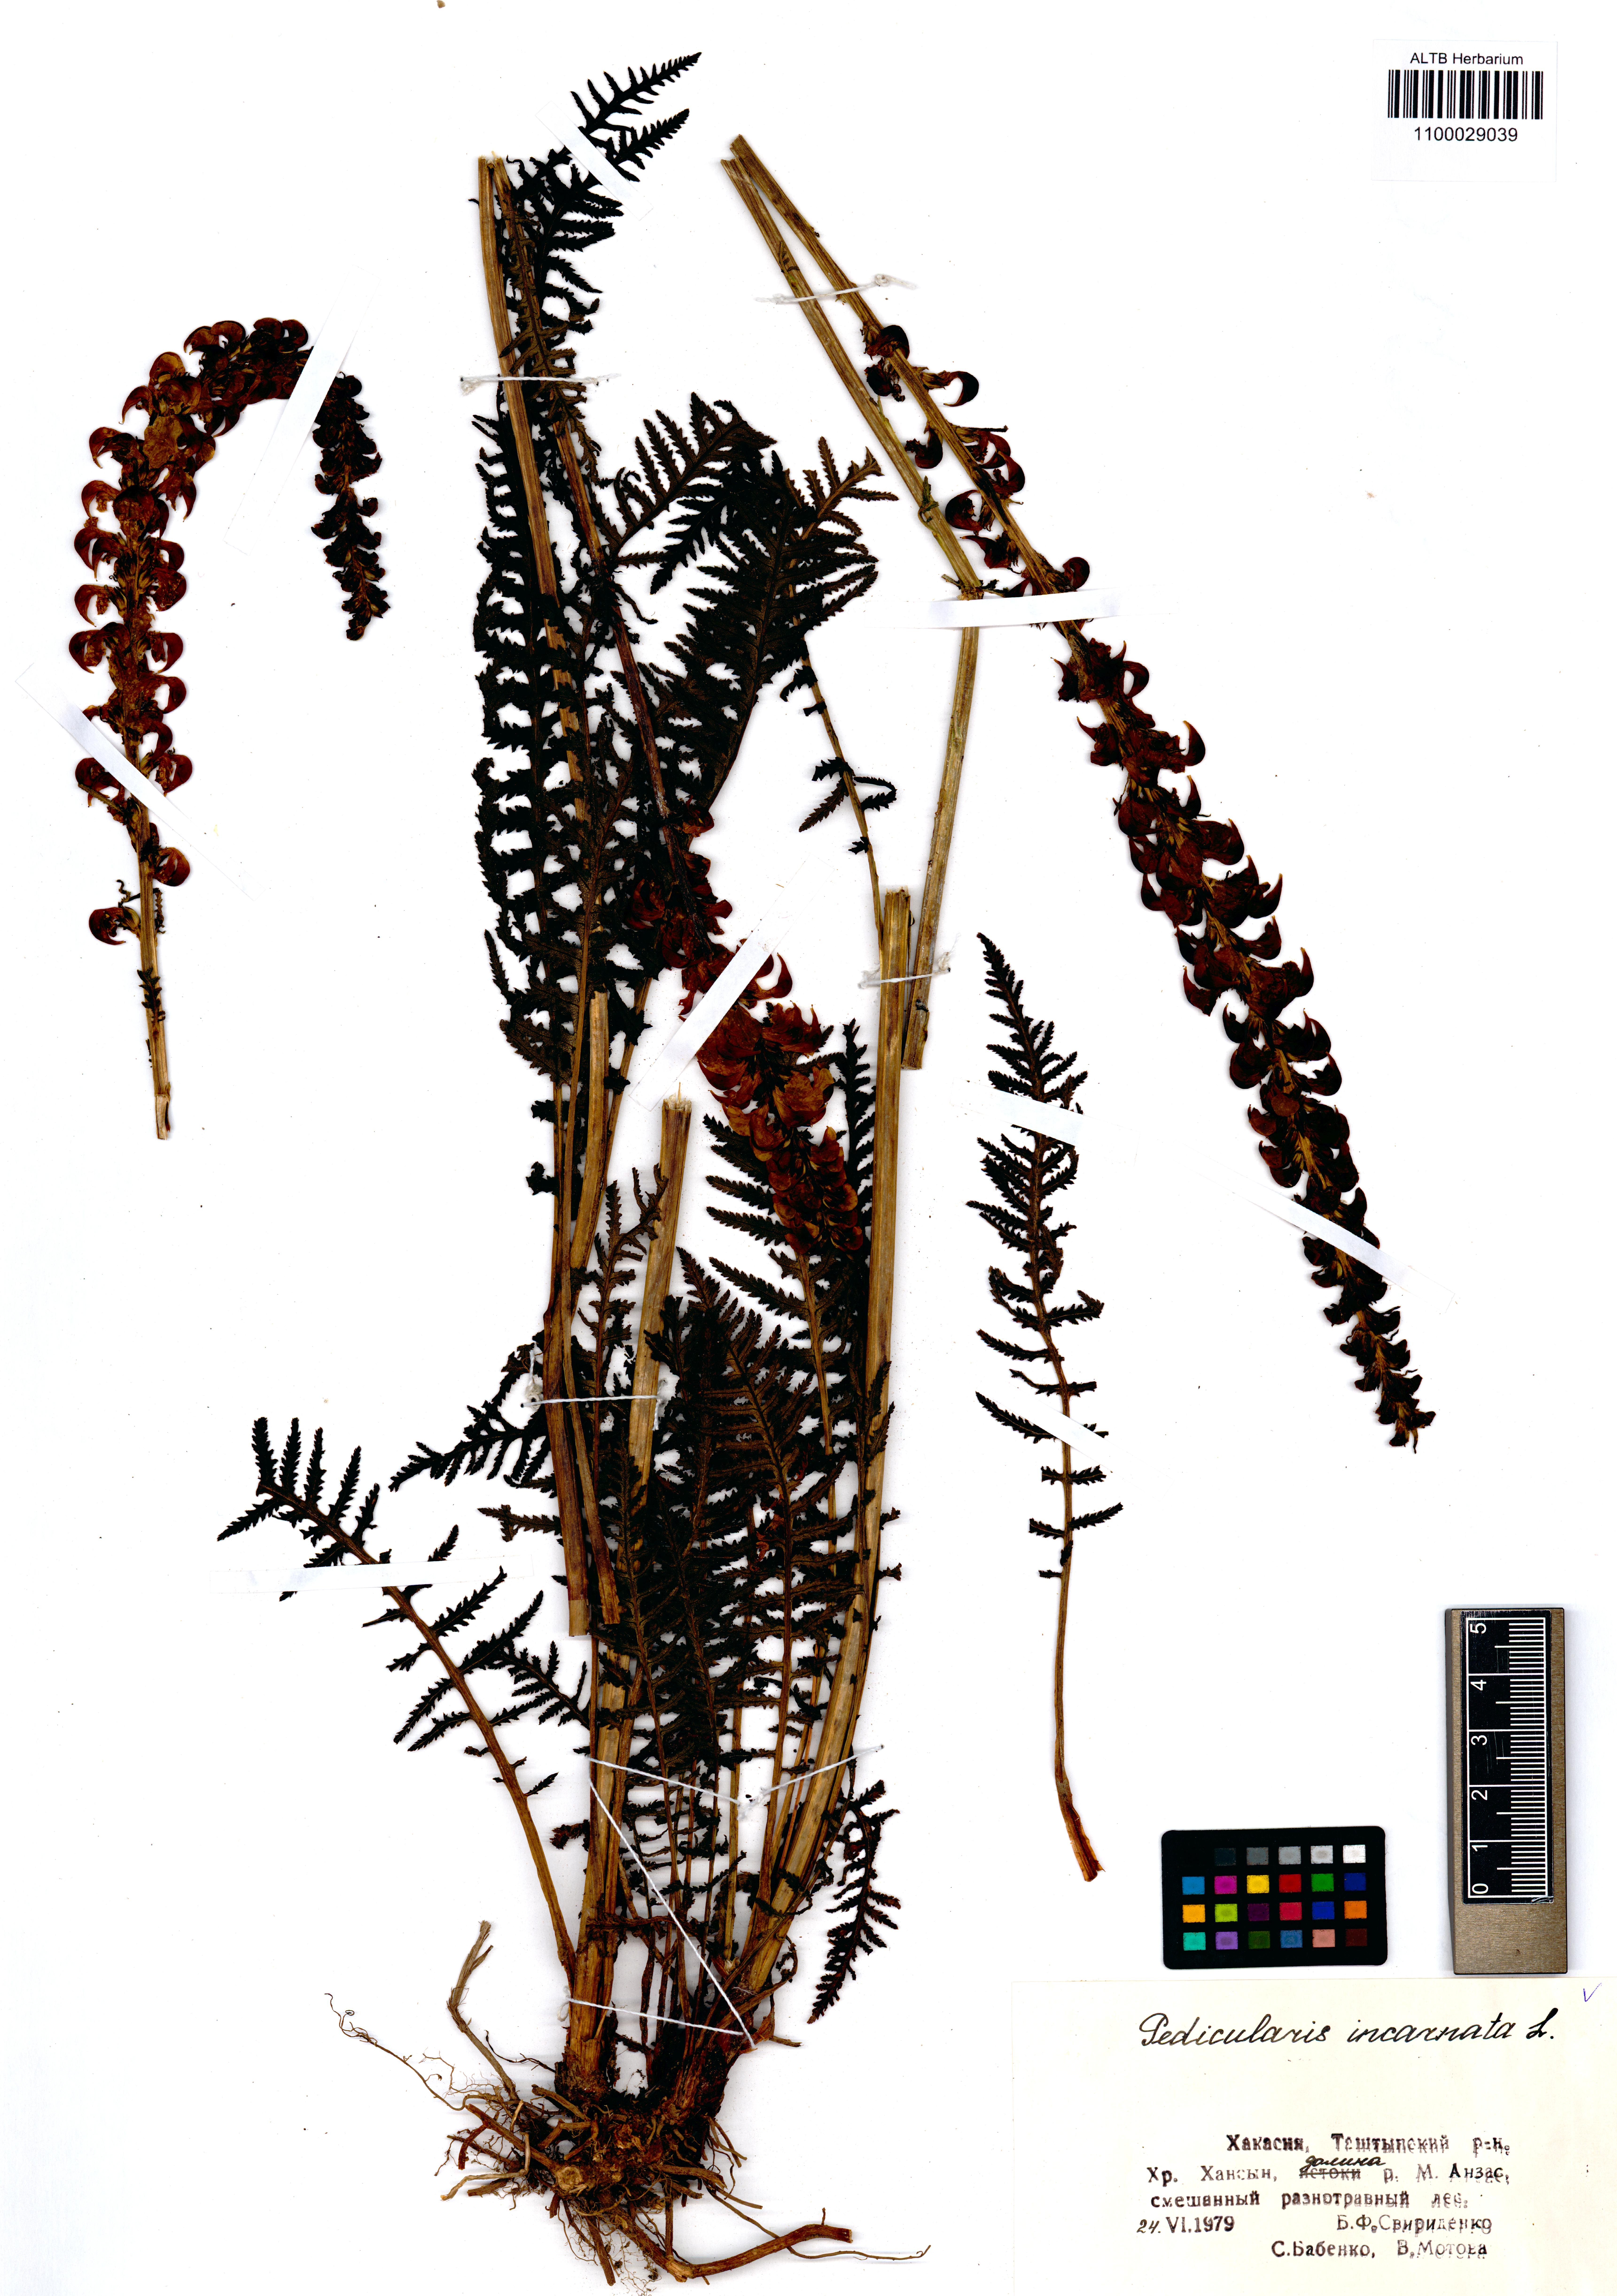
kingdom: Plantae
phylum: Tracheophyta
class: Magnoliopsida
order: Lamiales
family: Orobanchaceae
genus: Pedicularis
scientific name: Pedicularis incarnata
